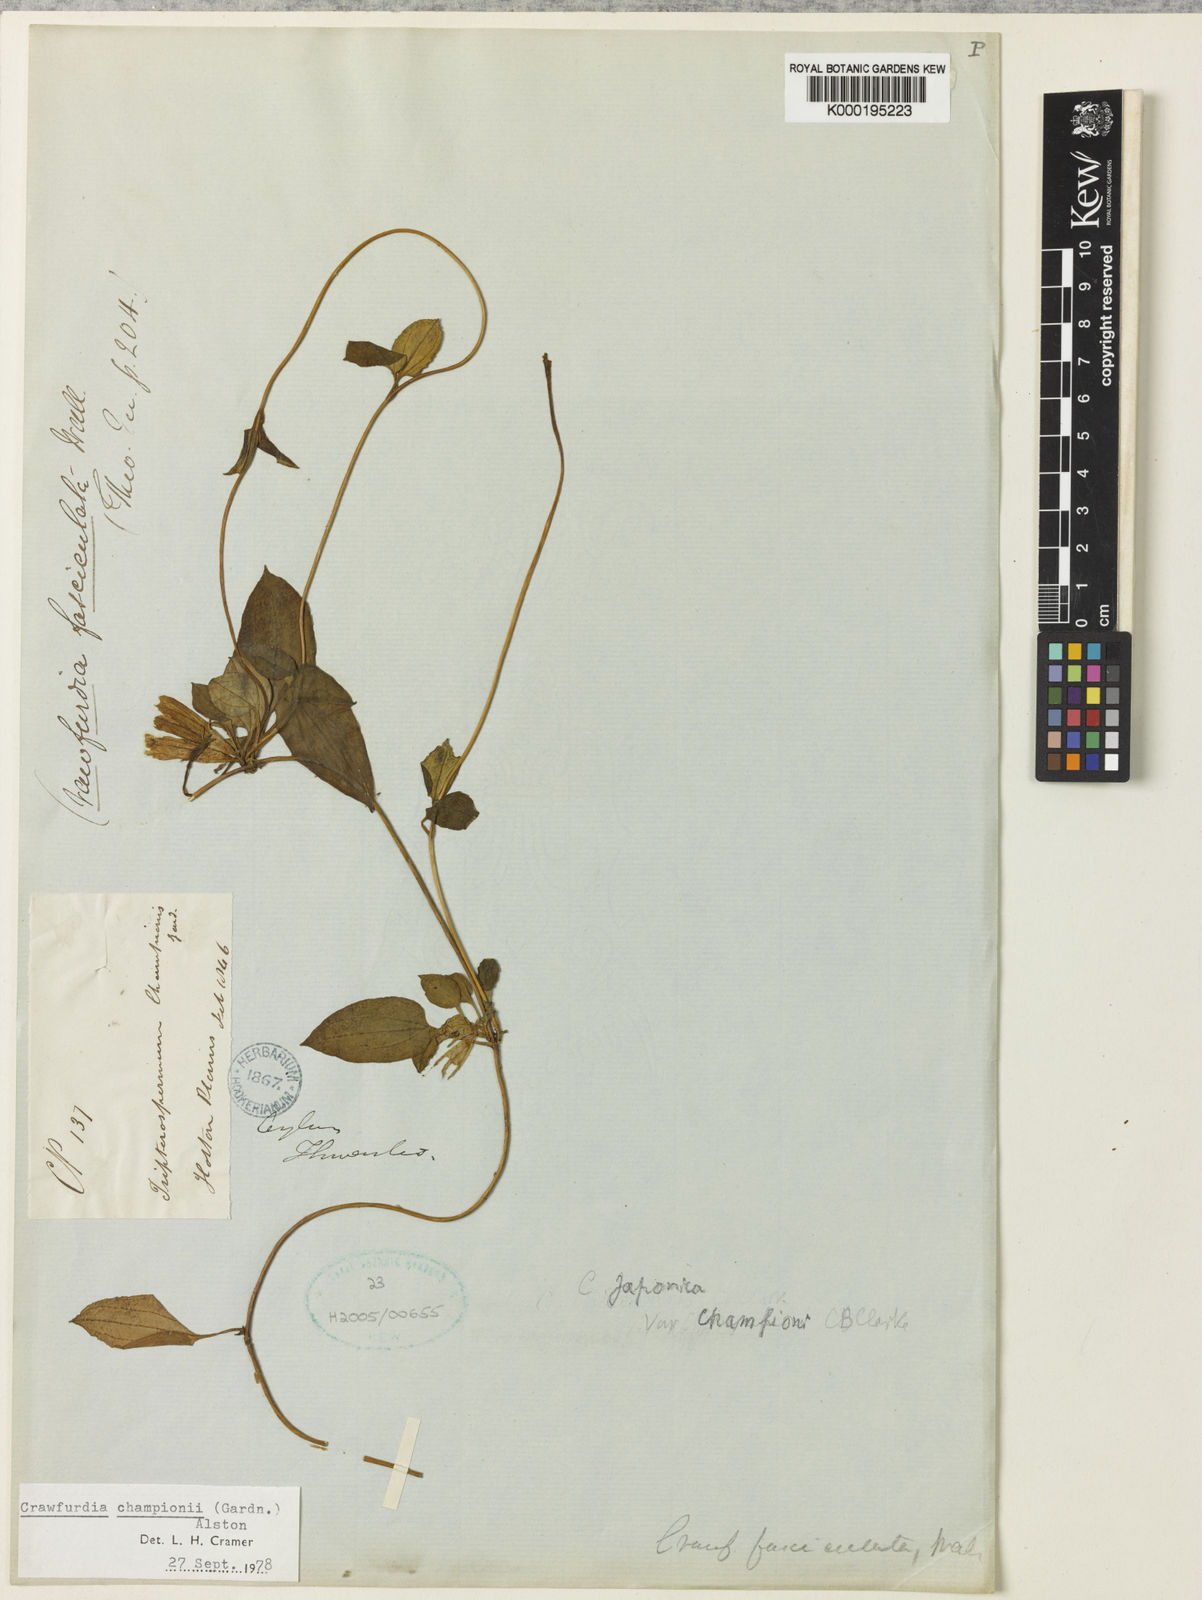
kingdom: Plantae
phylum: Tracheophyta
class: Magnoliopsida
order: Gentianales
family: Gentianaceae
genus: Crawfurdia
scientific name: Crawfurdia championii
